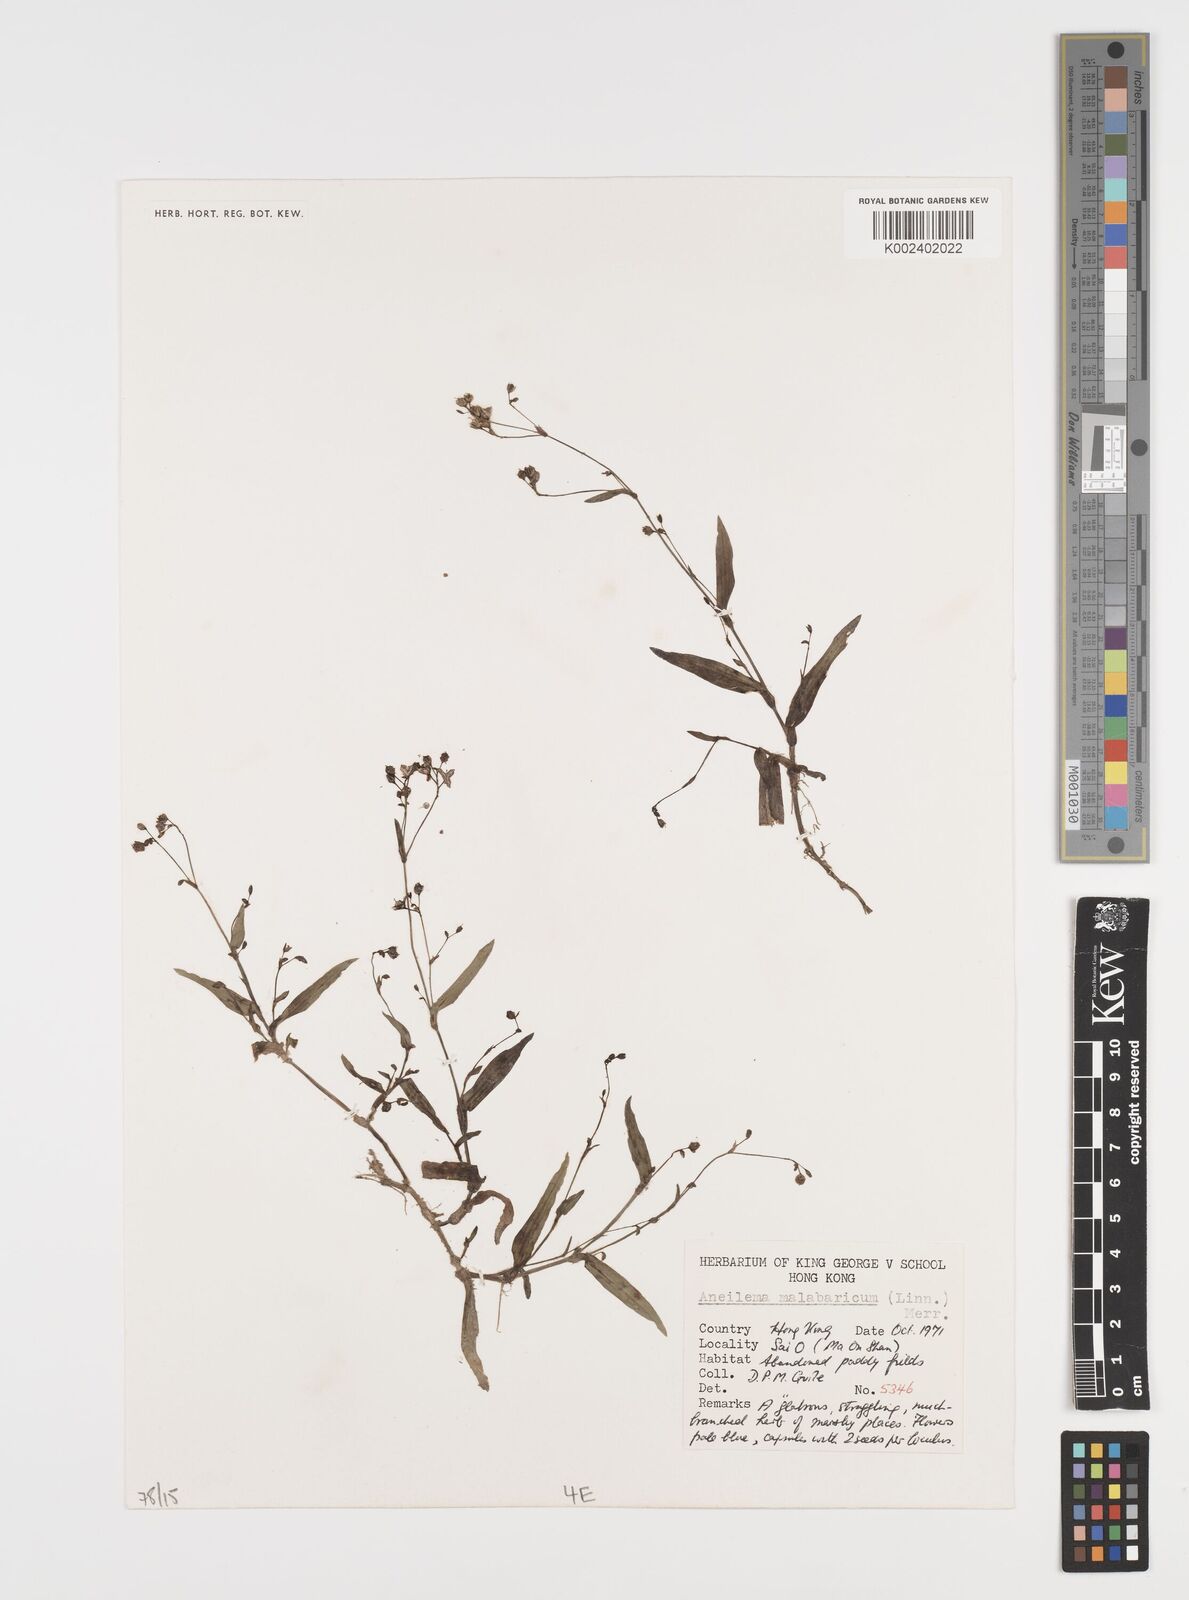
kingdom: Plantae
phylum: Tracheophyta
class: Liliopsida
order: Commelinales
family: Commelinaceae
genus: Murdannia
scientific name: Murdannia nudiflora
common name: Nakedstem dewflower
